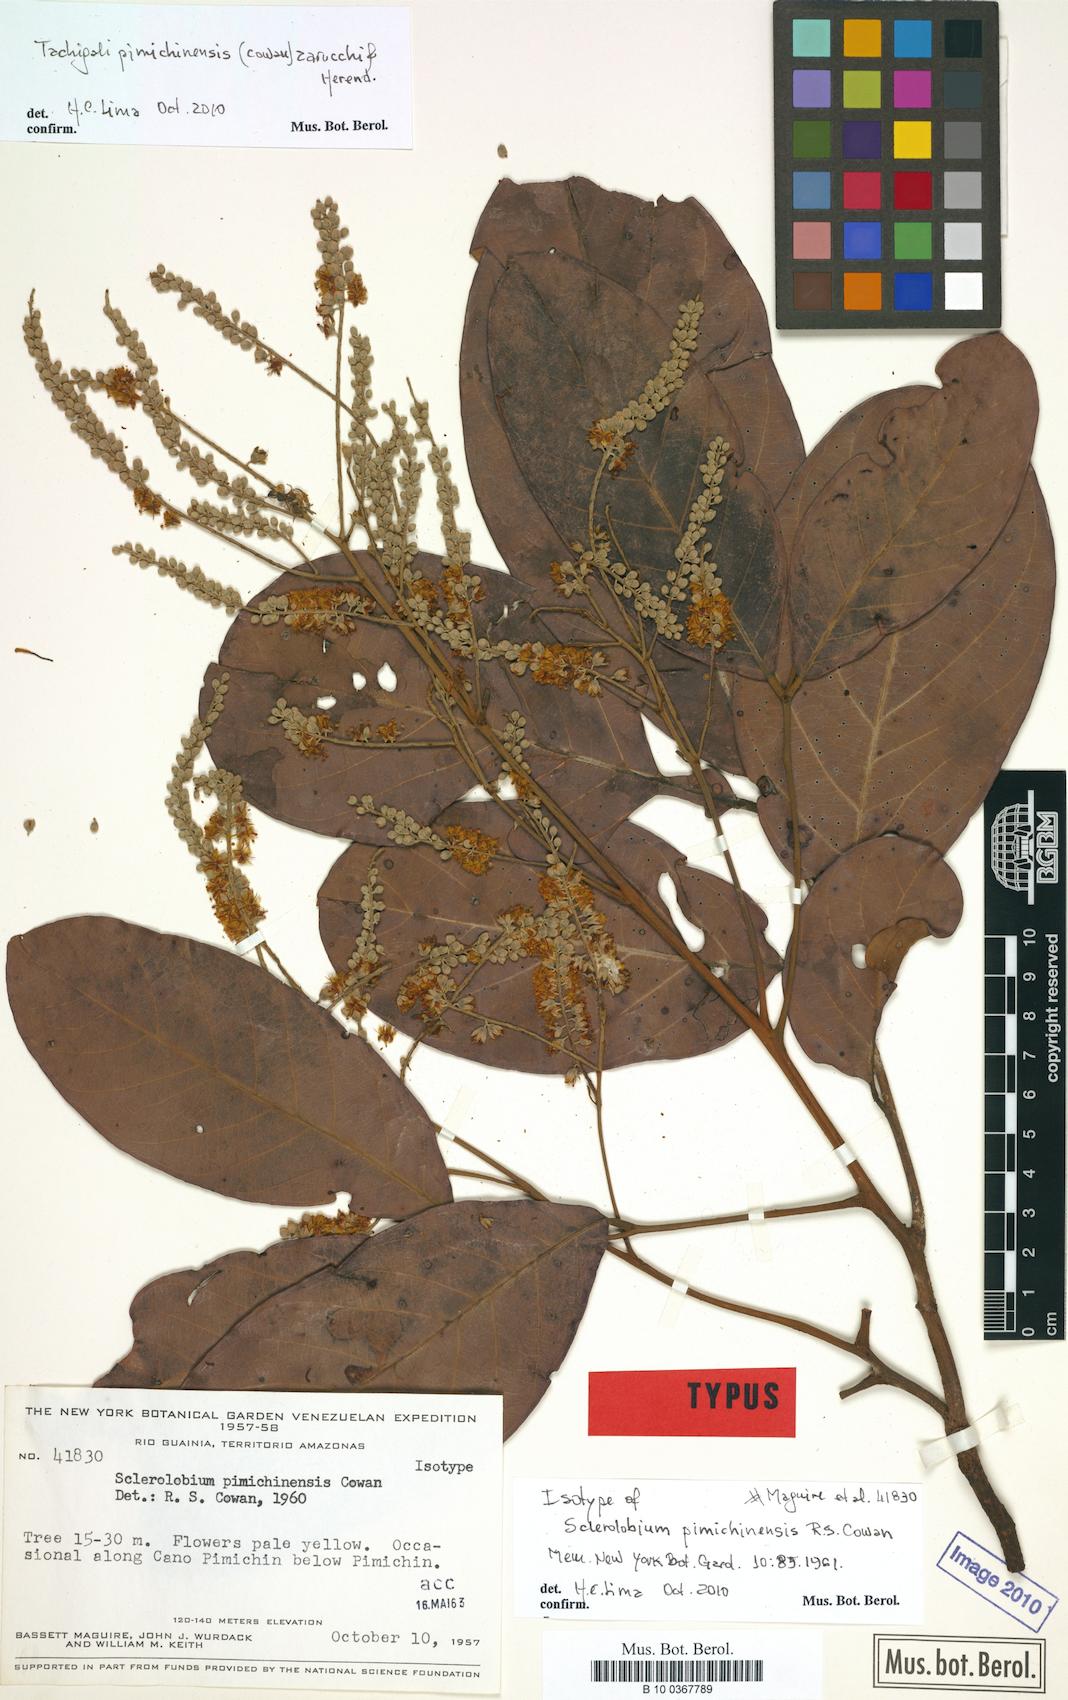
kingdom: Plantae
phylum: Tracheophyta
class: Magnoliopsida
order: Fabales
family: Fabaceae
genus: Tachigali
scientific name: Tachigali pimichinensis
